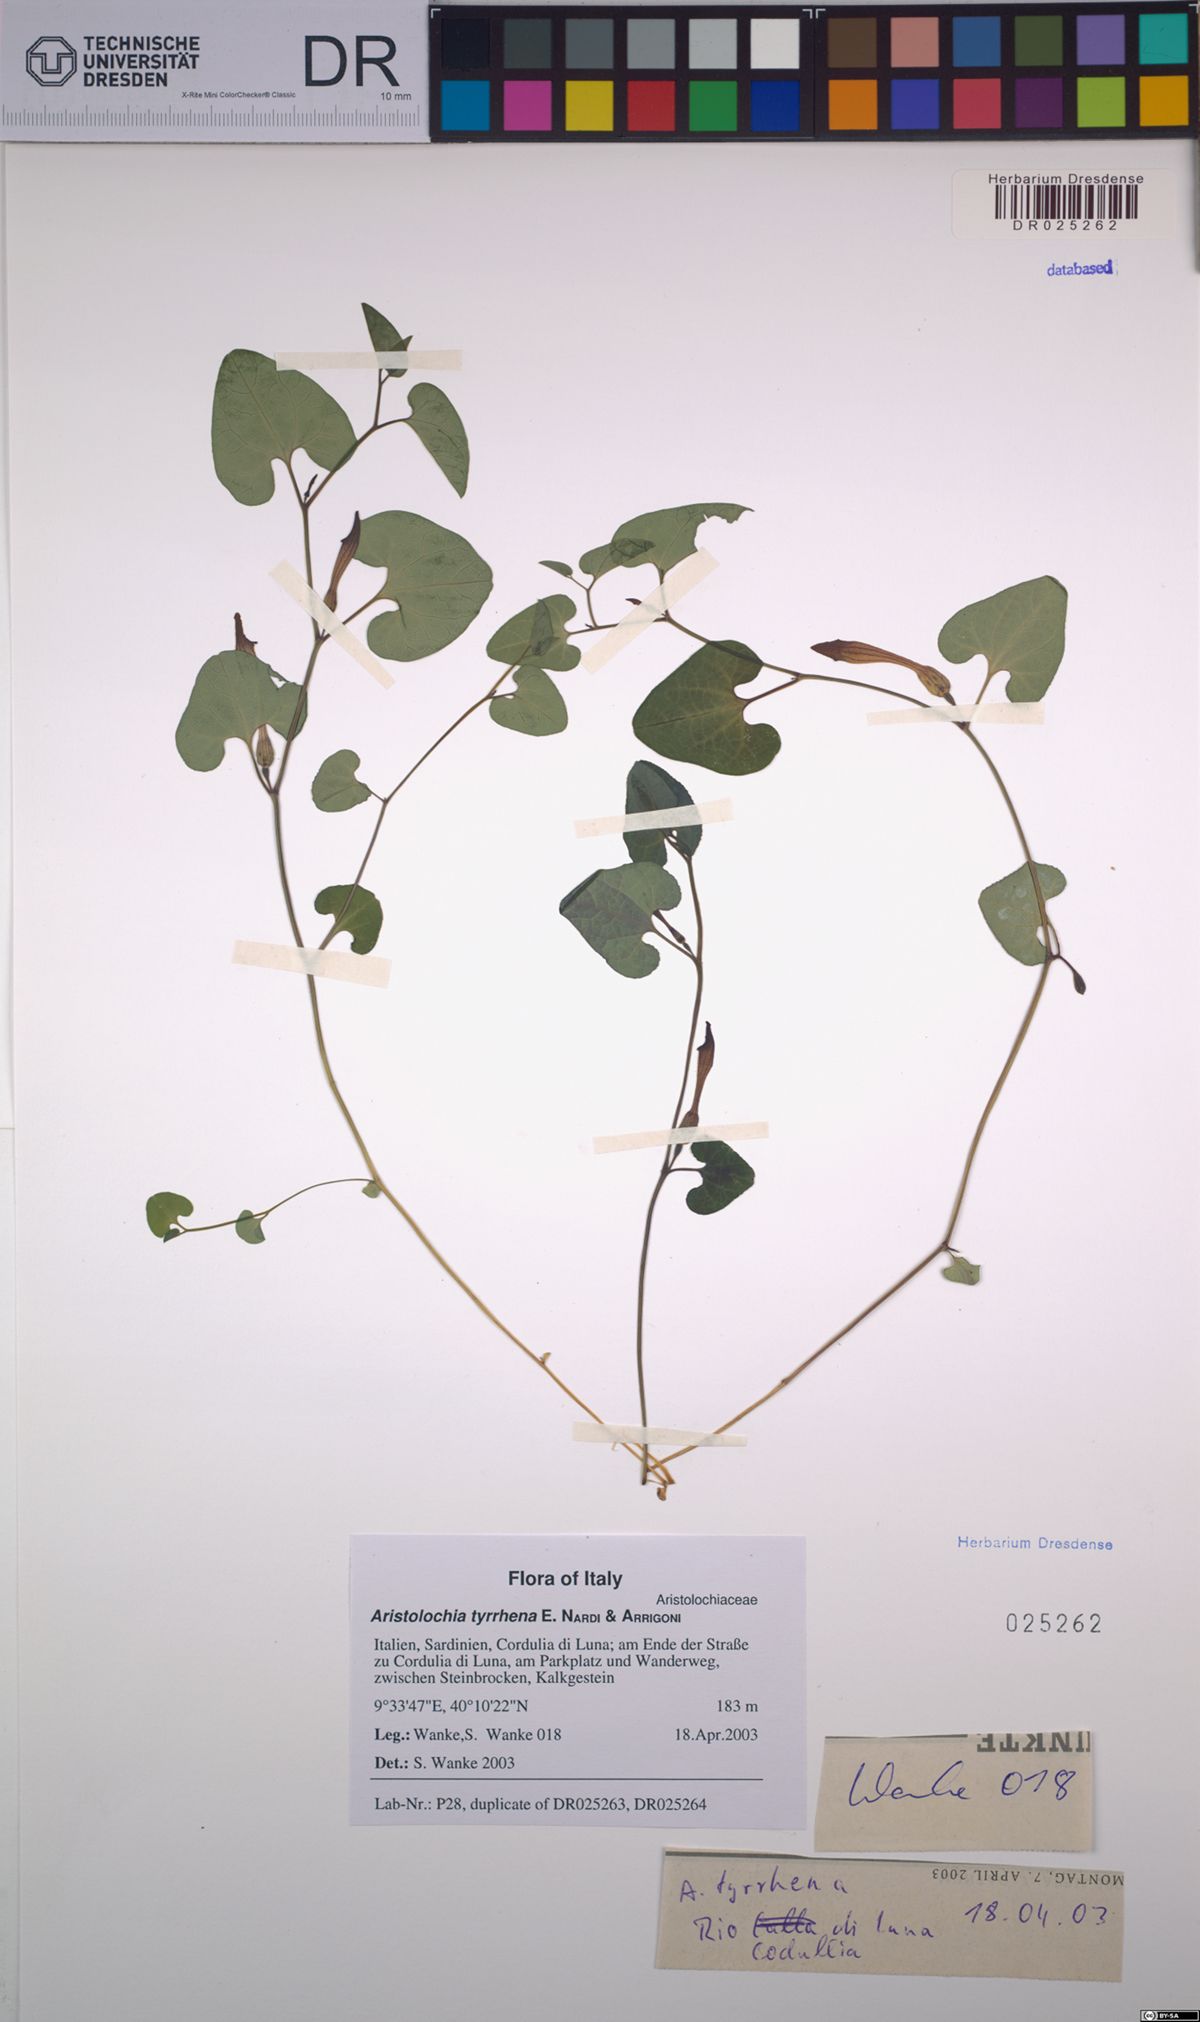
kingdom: Plantae
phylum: Tracheophyta
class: Magnoliopsida
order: Piperales
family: Aristolochiaceae
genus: Aristolochia
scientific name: Aristolochia tyrrhena
